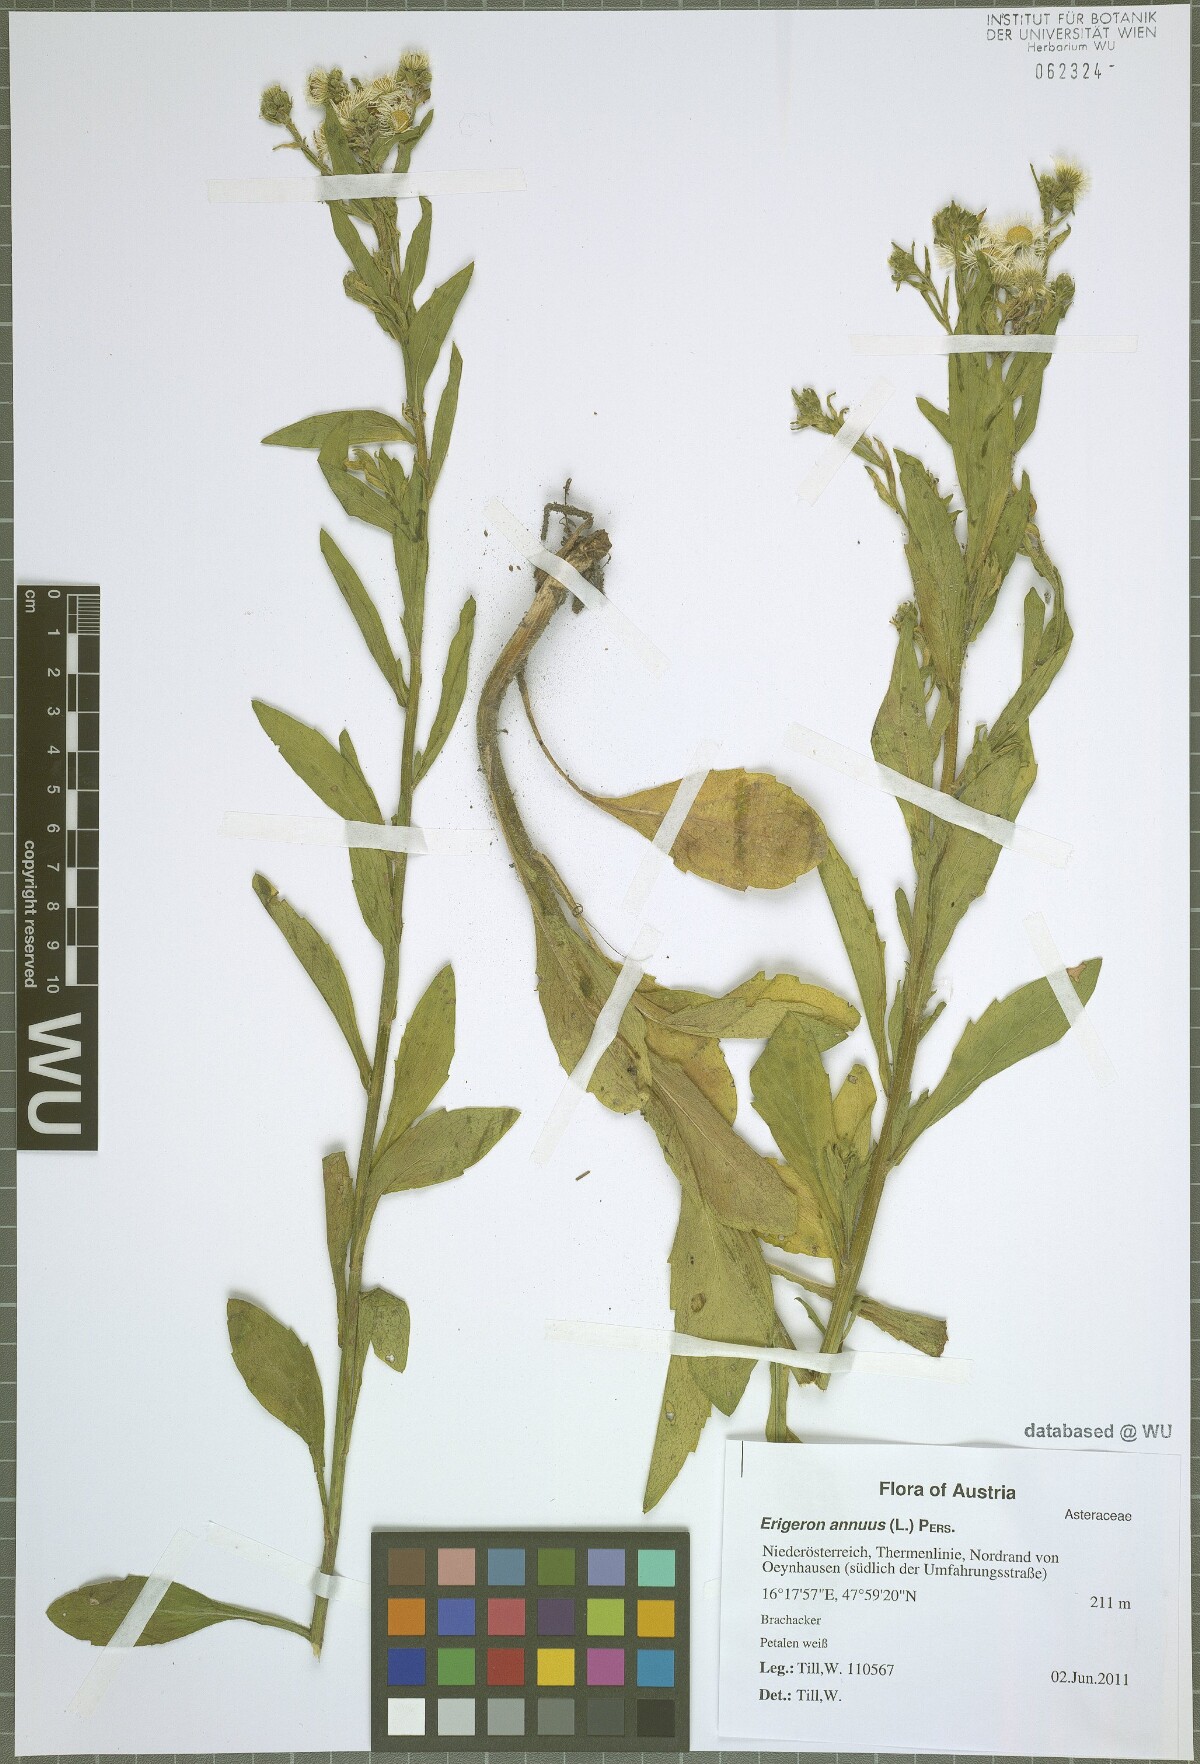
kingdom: Plantae
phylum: Tracheophyta
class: Magnoliopsida
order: Asterales
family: Asteraceae
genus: Erigeron
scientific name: Erigeron annuus
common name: Tall fleabane
